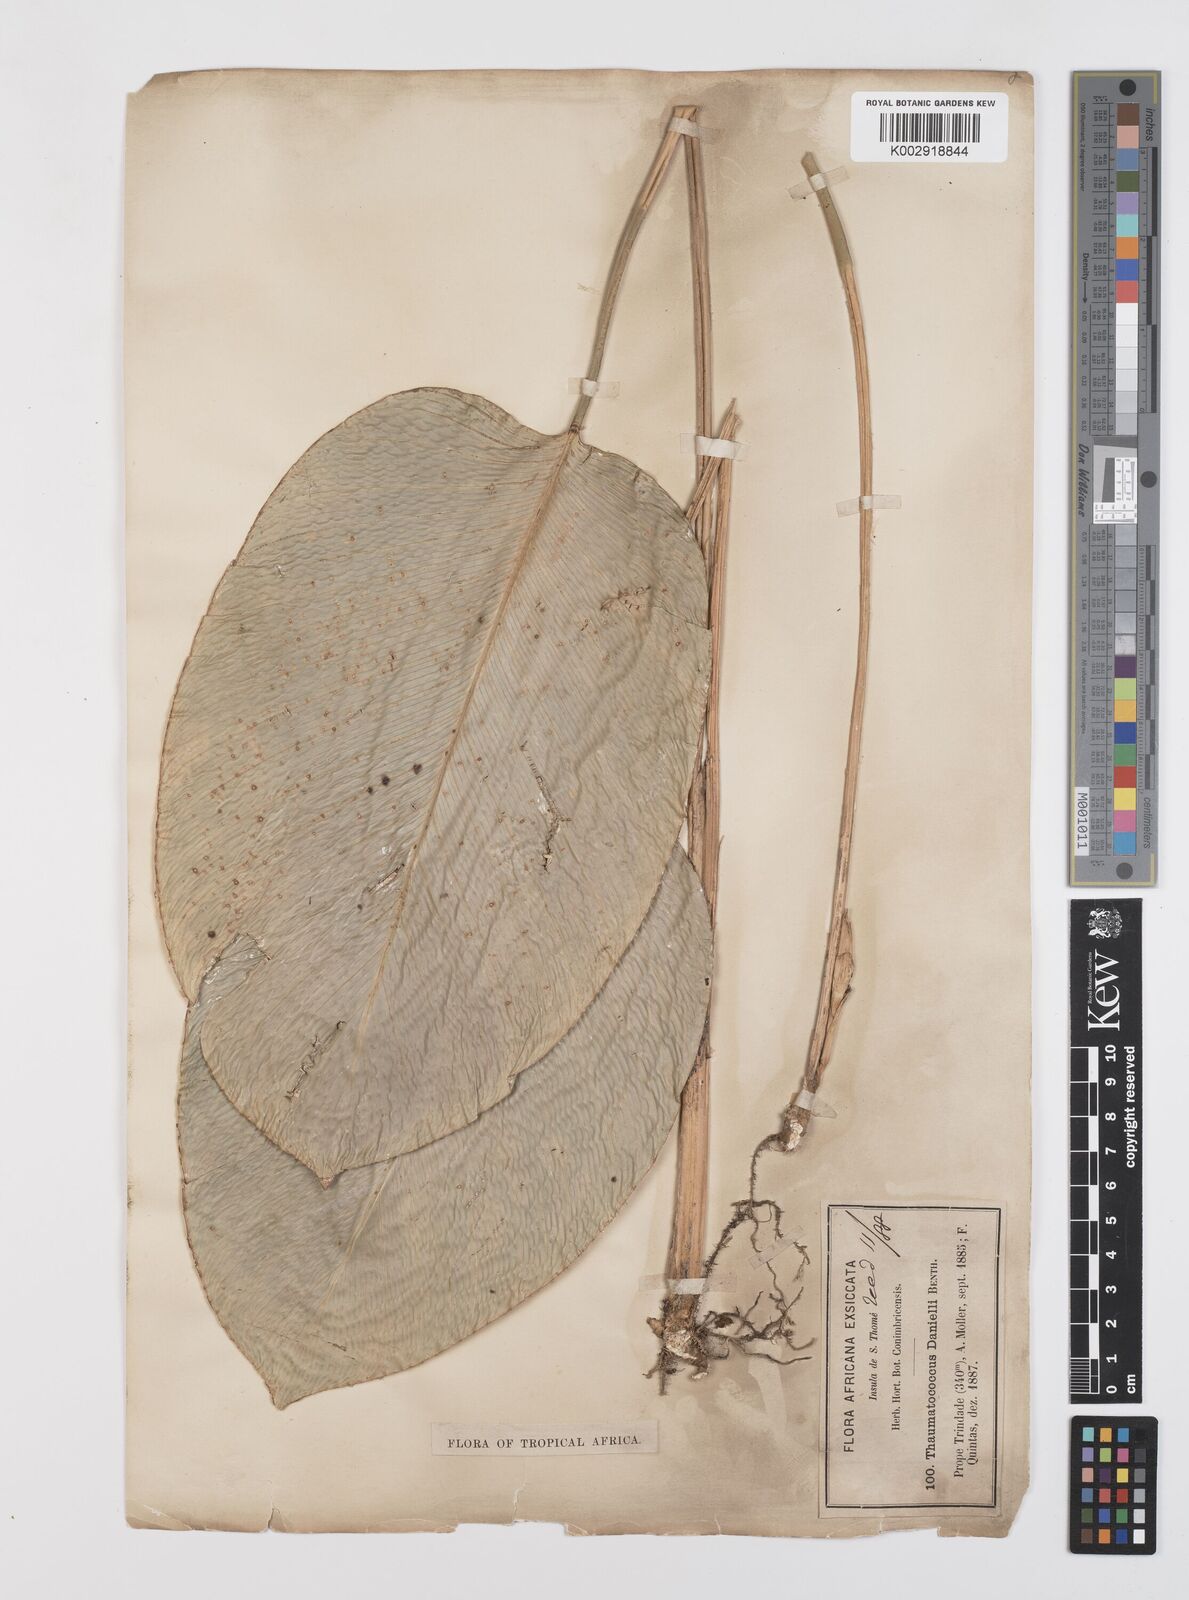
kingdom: Plantae
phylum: Tracheophyta
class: Liliopsida
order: Zingiberales
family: Marantaceae
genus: Thaumatococcus
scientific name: Thaumatococcus daniellii
